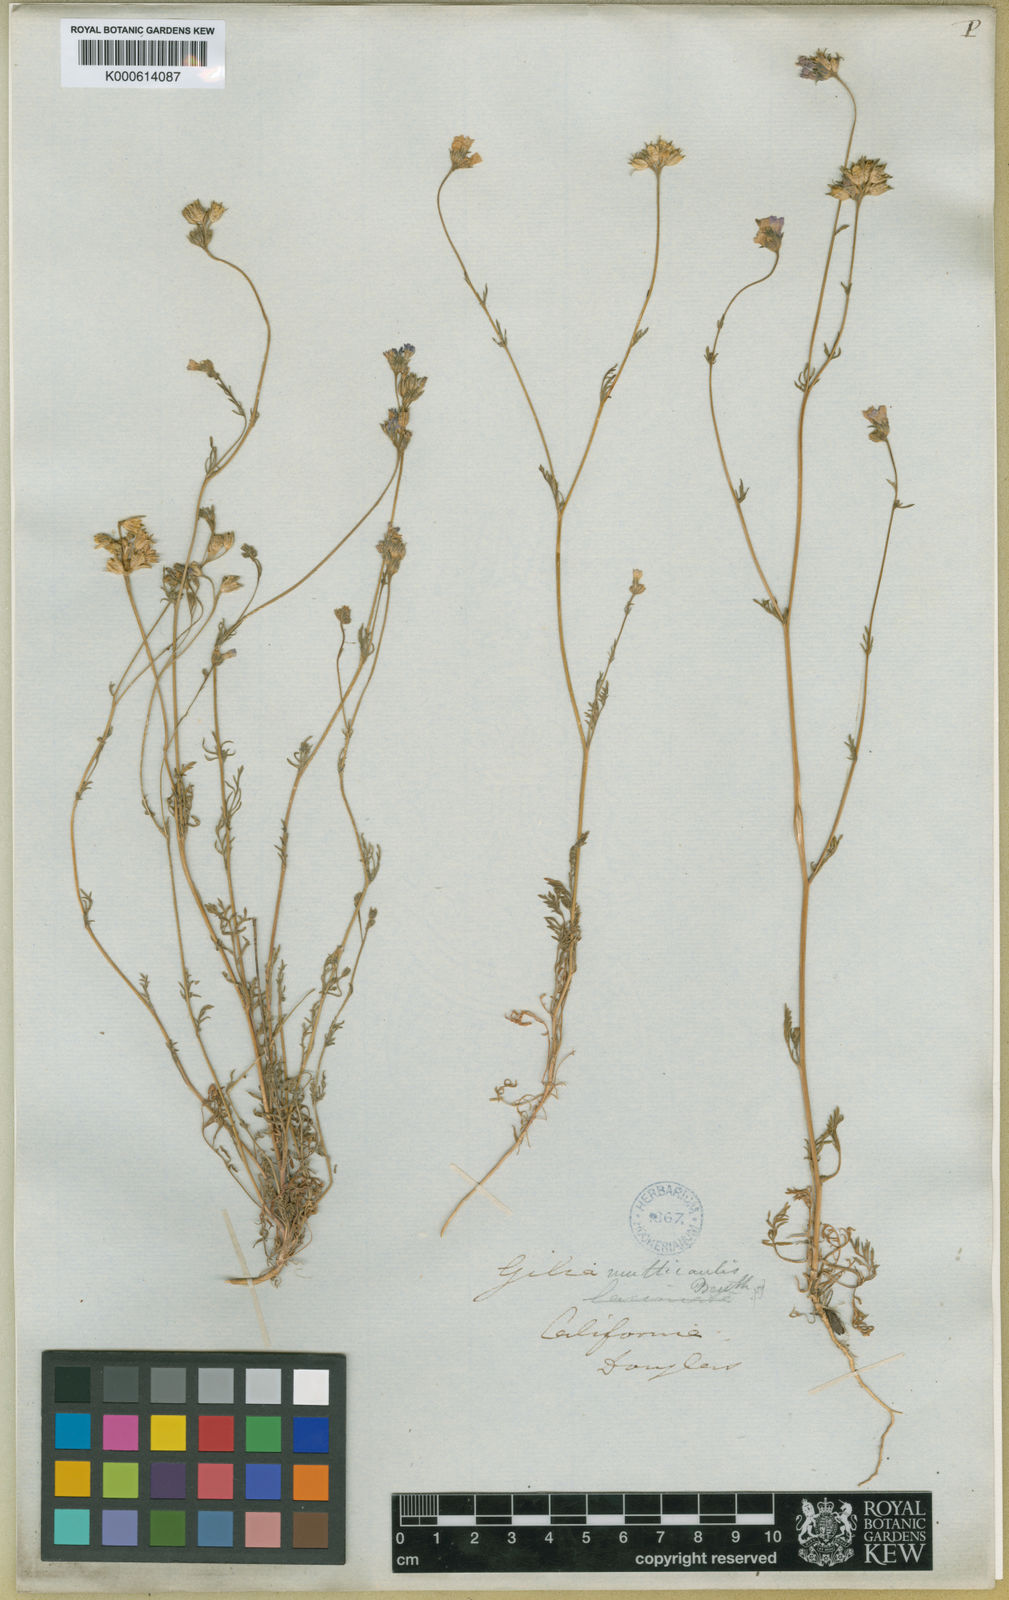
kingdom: Plantae
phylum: Tracheophyta
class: Magnoliopsida
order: Ericales
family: Polemoniaceae
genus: Gilia
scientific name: Gilia achilleifolia
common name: California gily-flower
